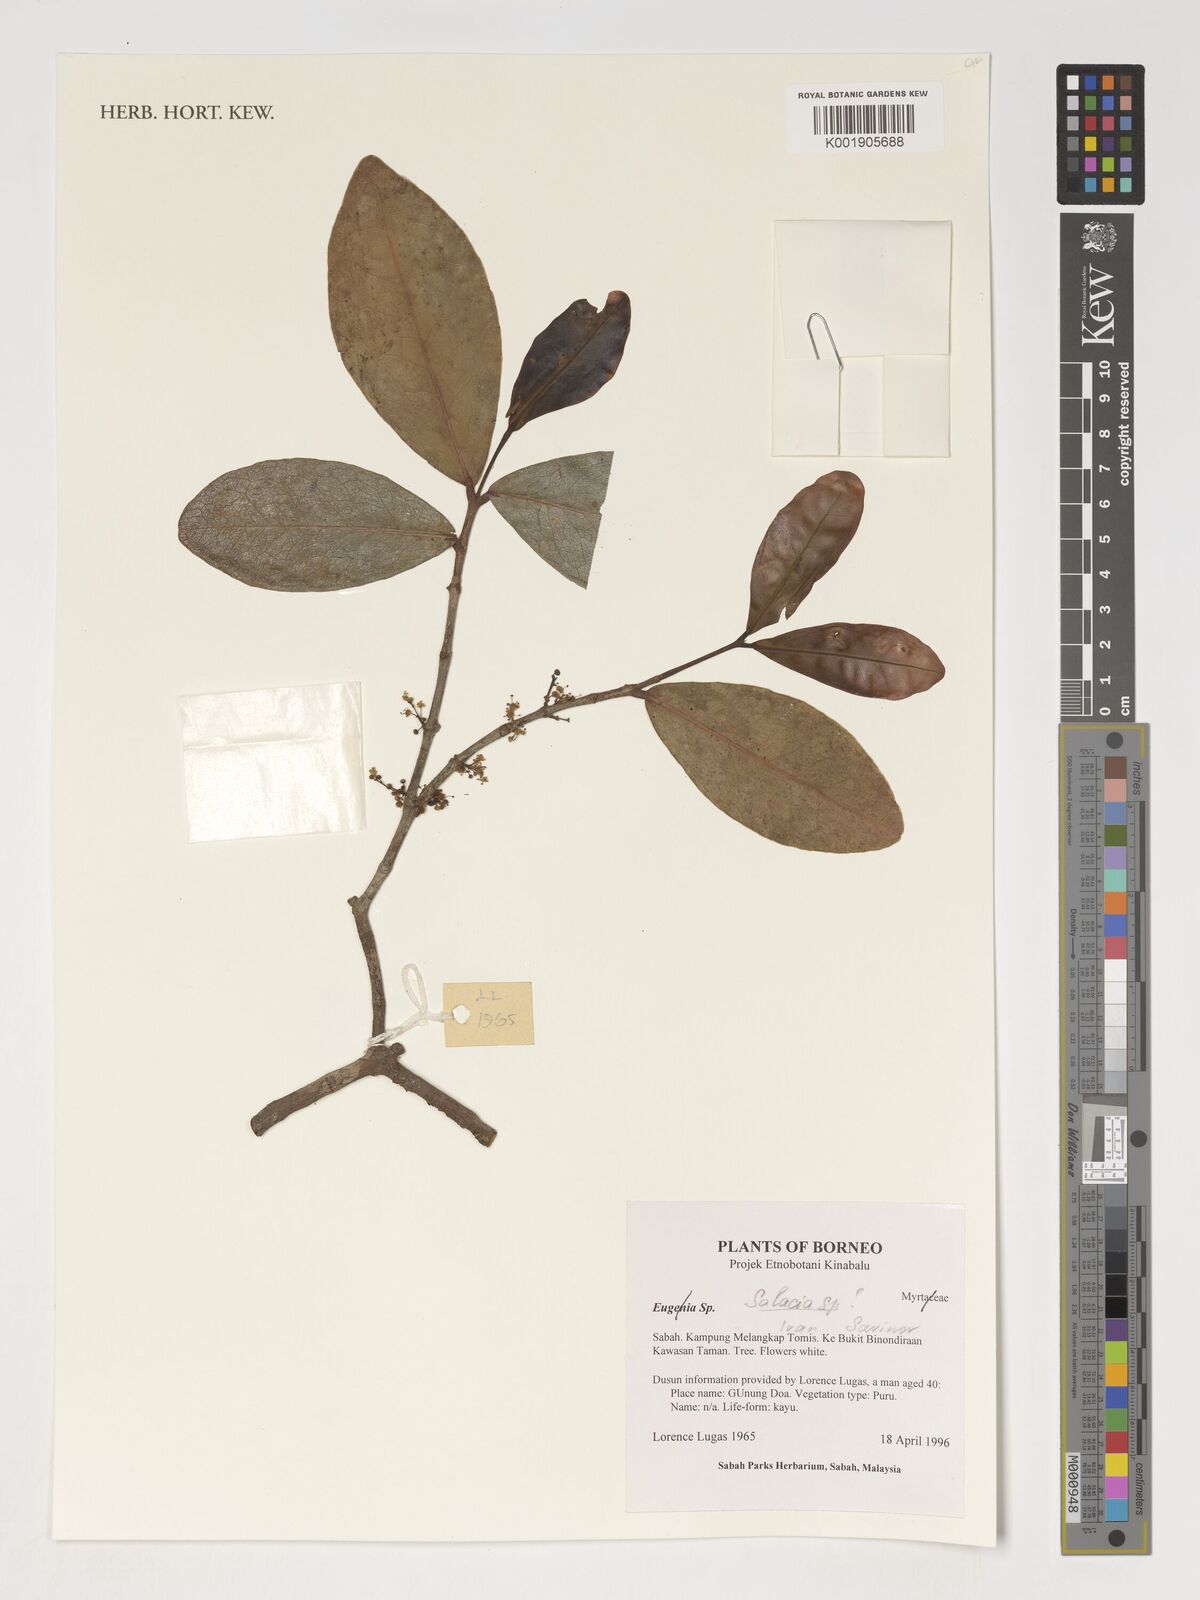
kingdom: Plantae
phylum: Tracheophyta
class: Magnoliopsida
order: Celastrales
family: Celastraceae
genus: Salacia
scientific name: Salacia
